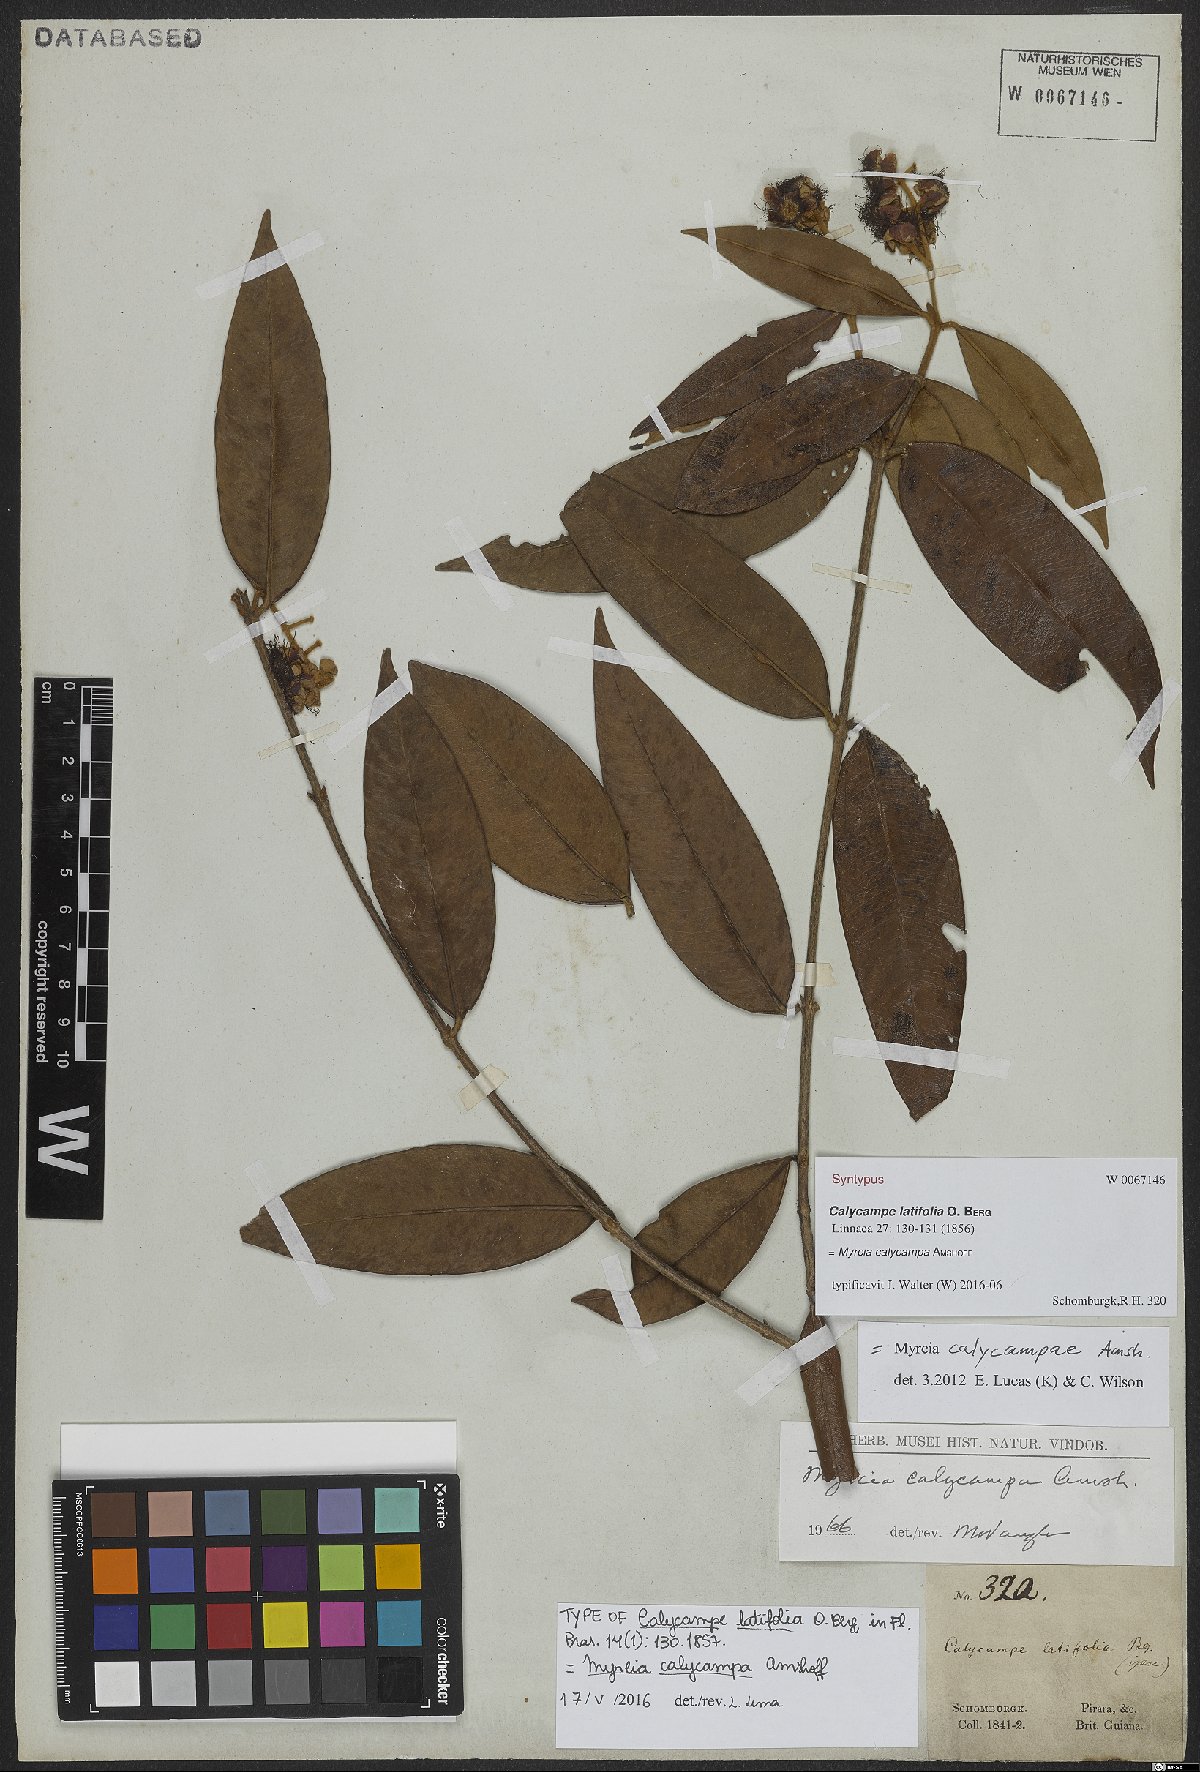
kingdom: Plantae
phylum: Tracheophyta
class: Magnoliopsida
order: Myrtales
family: Myrtaceae
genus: Myrcia
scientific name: Myrcia calycampa
